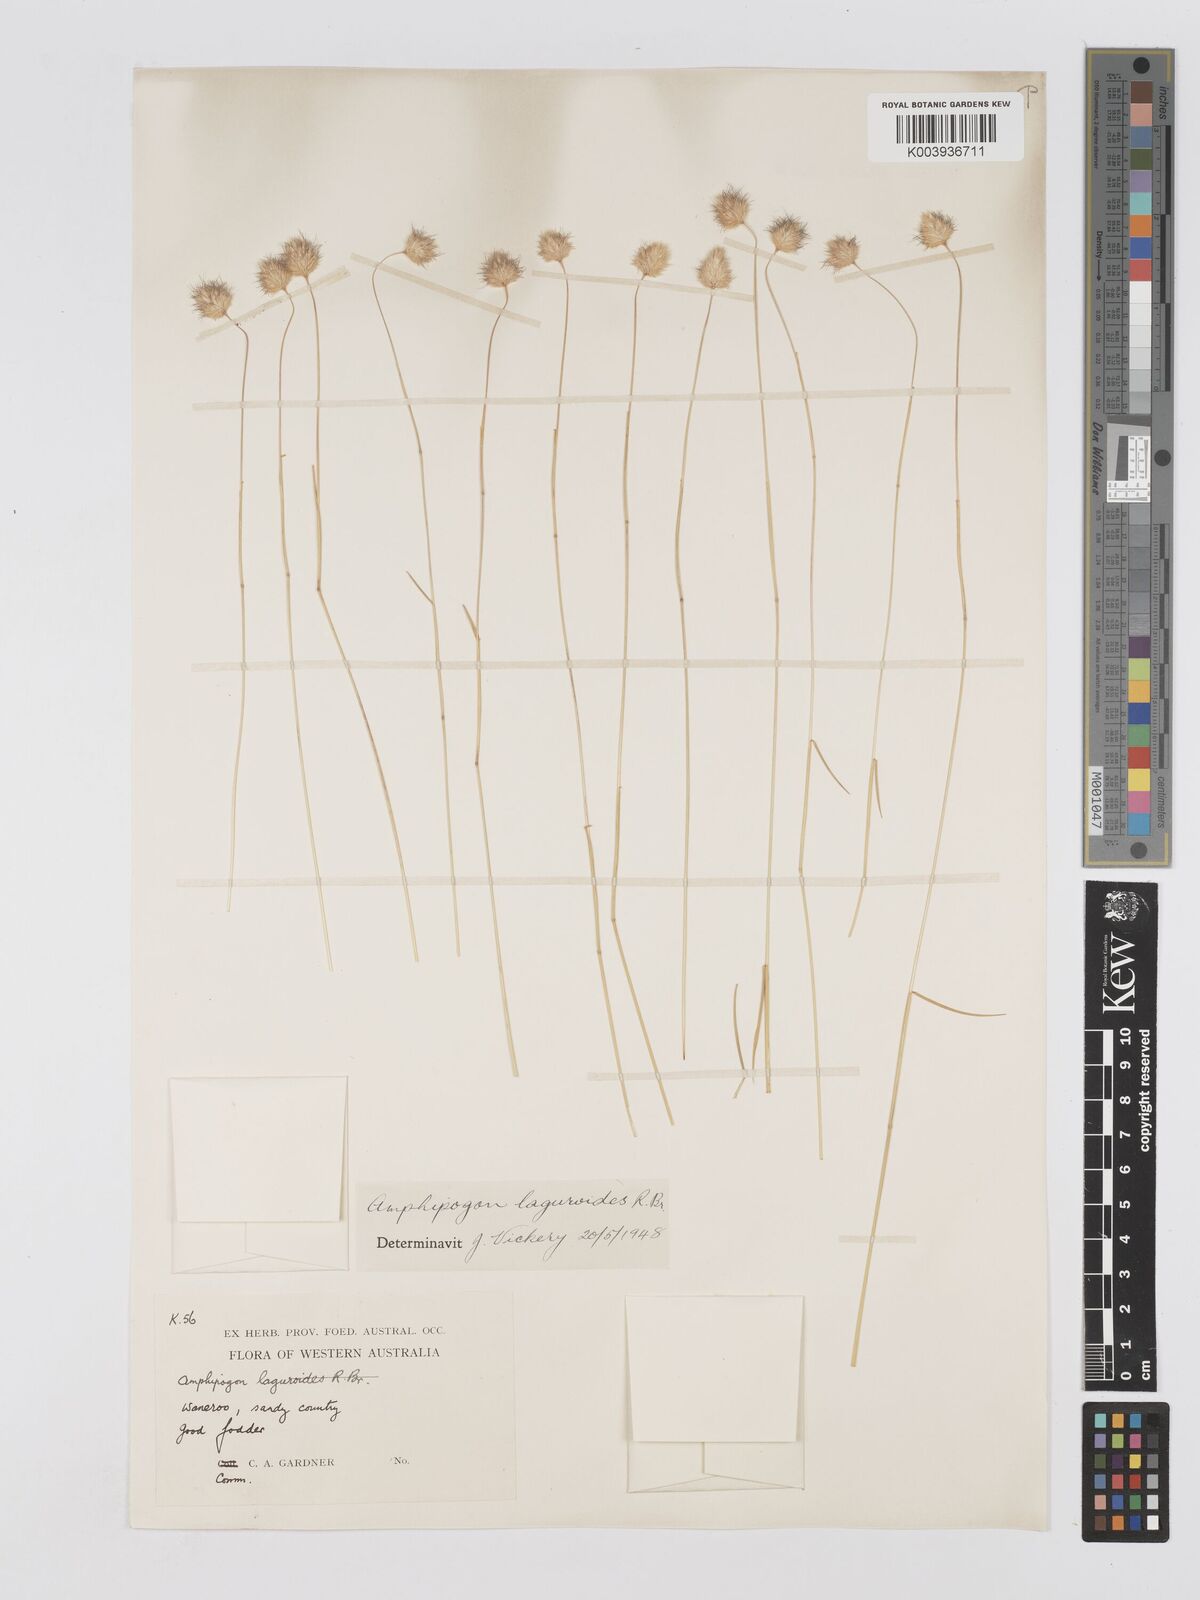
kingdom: Plantae
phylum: Tracheophyta
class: Liliopsida
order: Poales
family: Poaceae
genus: Amphipogon
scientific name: Amphipogon laguroides
